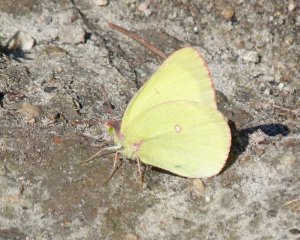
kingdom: Animalia
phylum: Arthropoda
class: Insecta
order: Lepidoptera
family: Pieridae
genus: Colias
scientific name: Colias interior
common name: Pink-edged Sulphur
